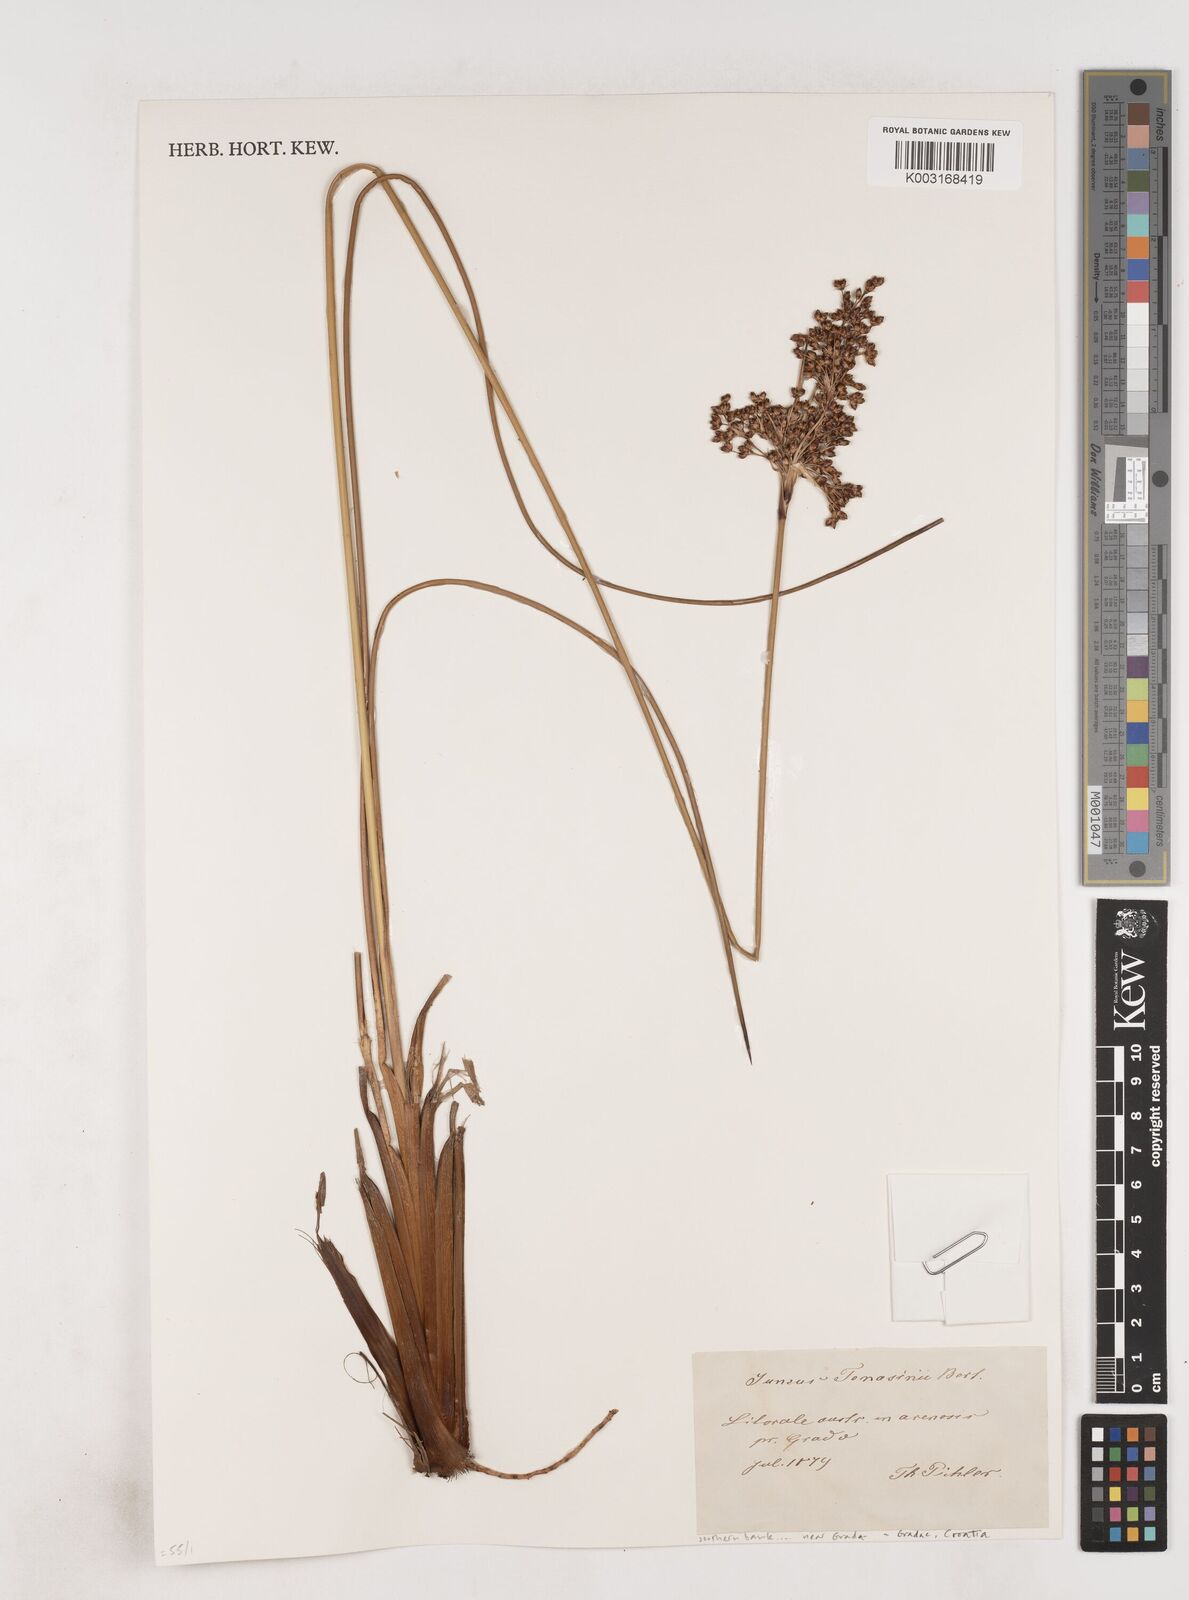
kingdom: Plantae
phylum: Tracheophyta
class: Liliopsida
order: Poales
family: Juncaceae
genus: Juncus
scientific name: Juncus
